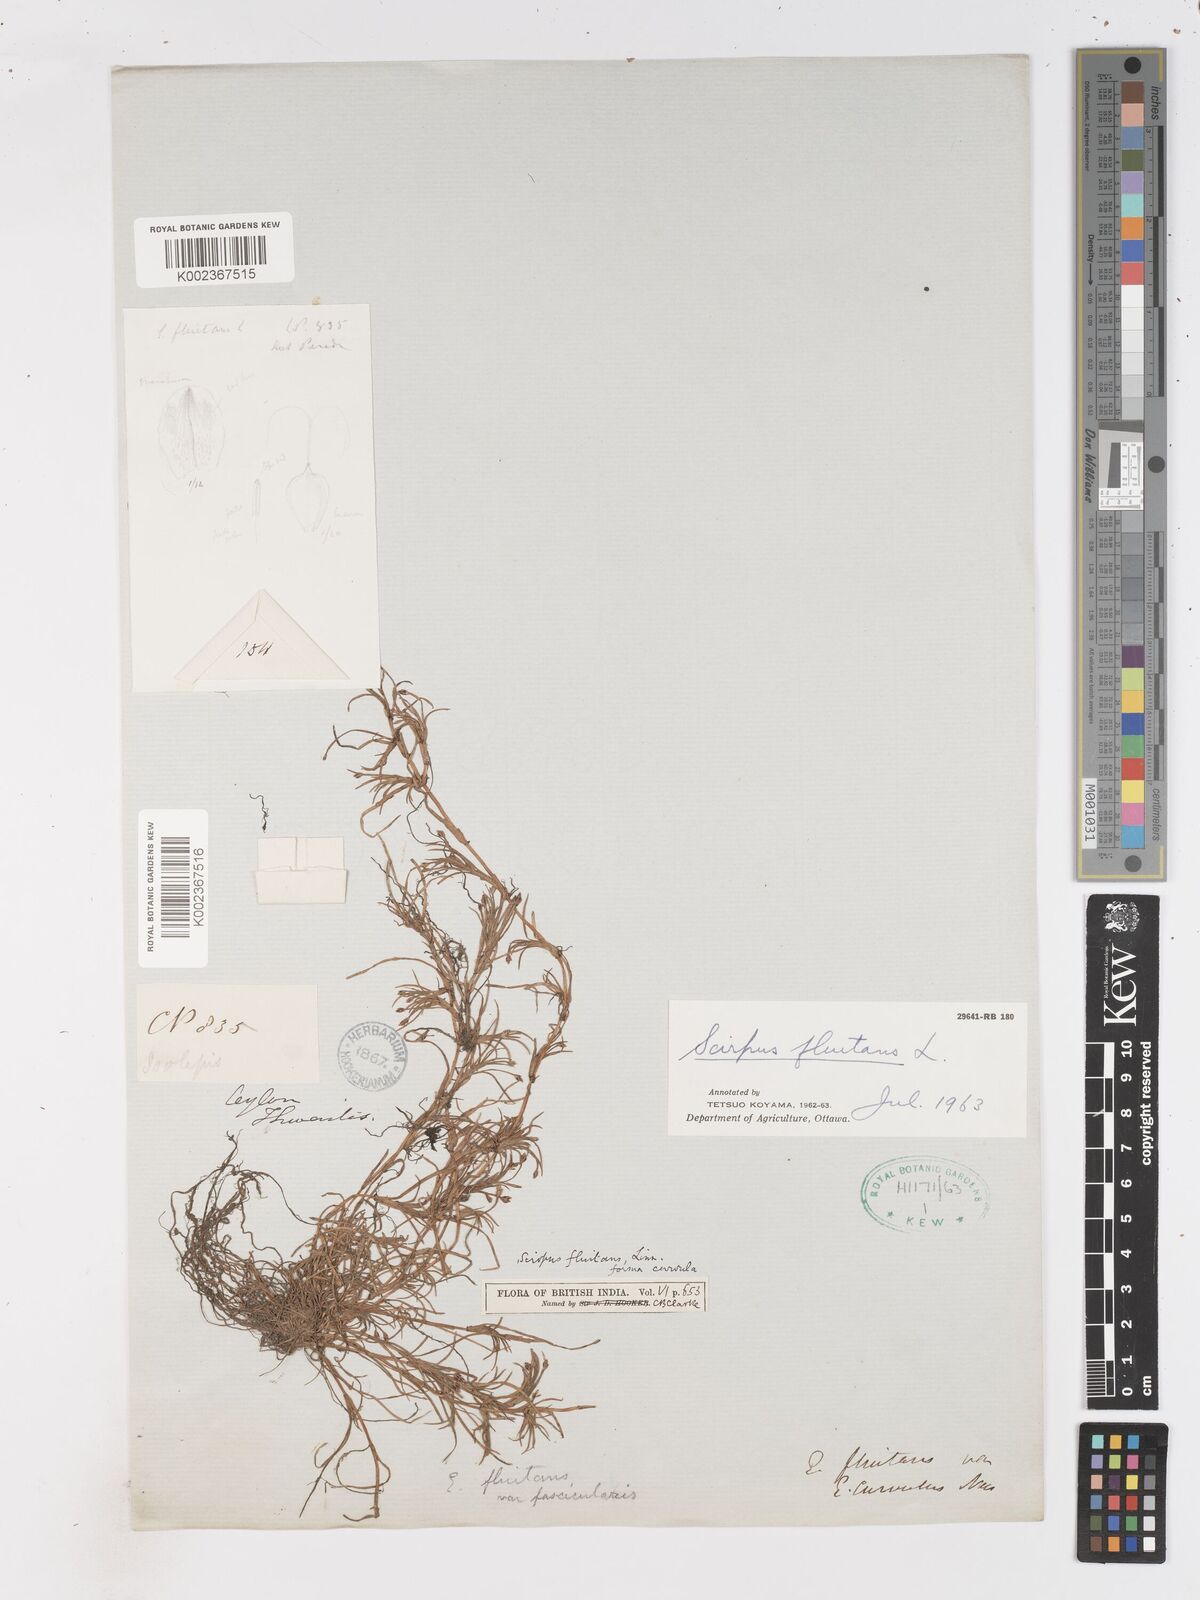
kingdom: Plantae
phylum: Tracheophyta
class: Liliopsida
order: Poales
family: Cyperaceae
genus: Isolepis
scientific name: Isolepis fluitans
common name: Floating club-rush
